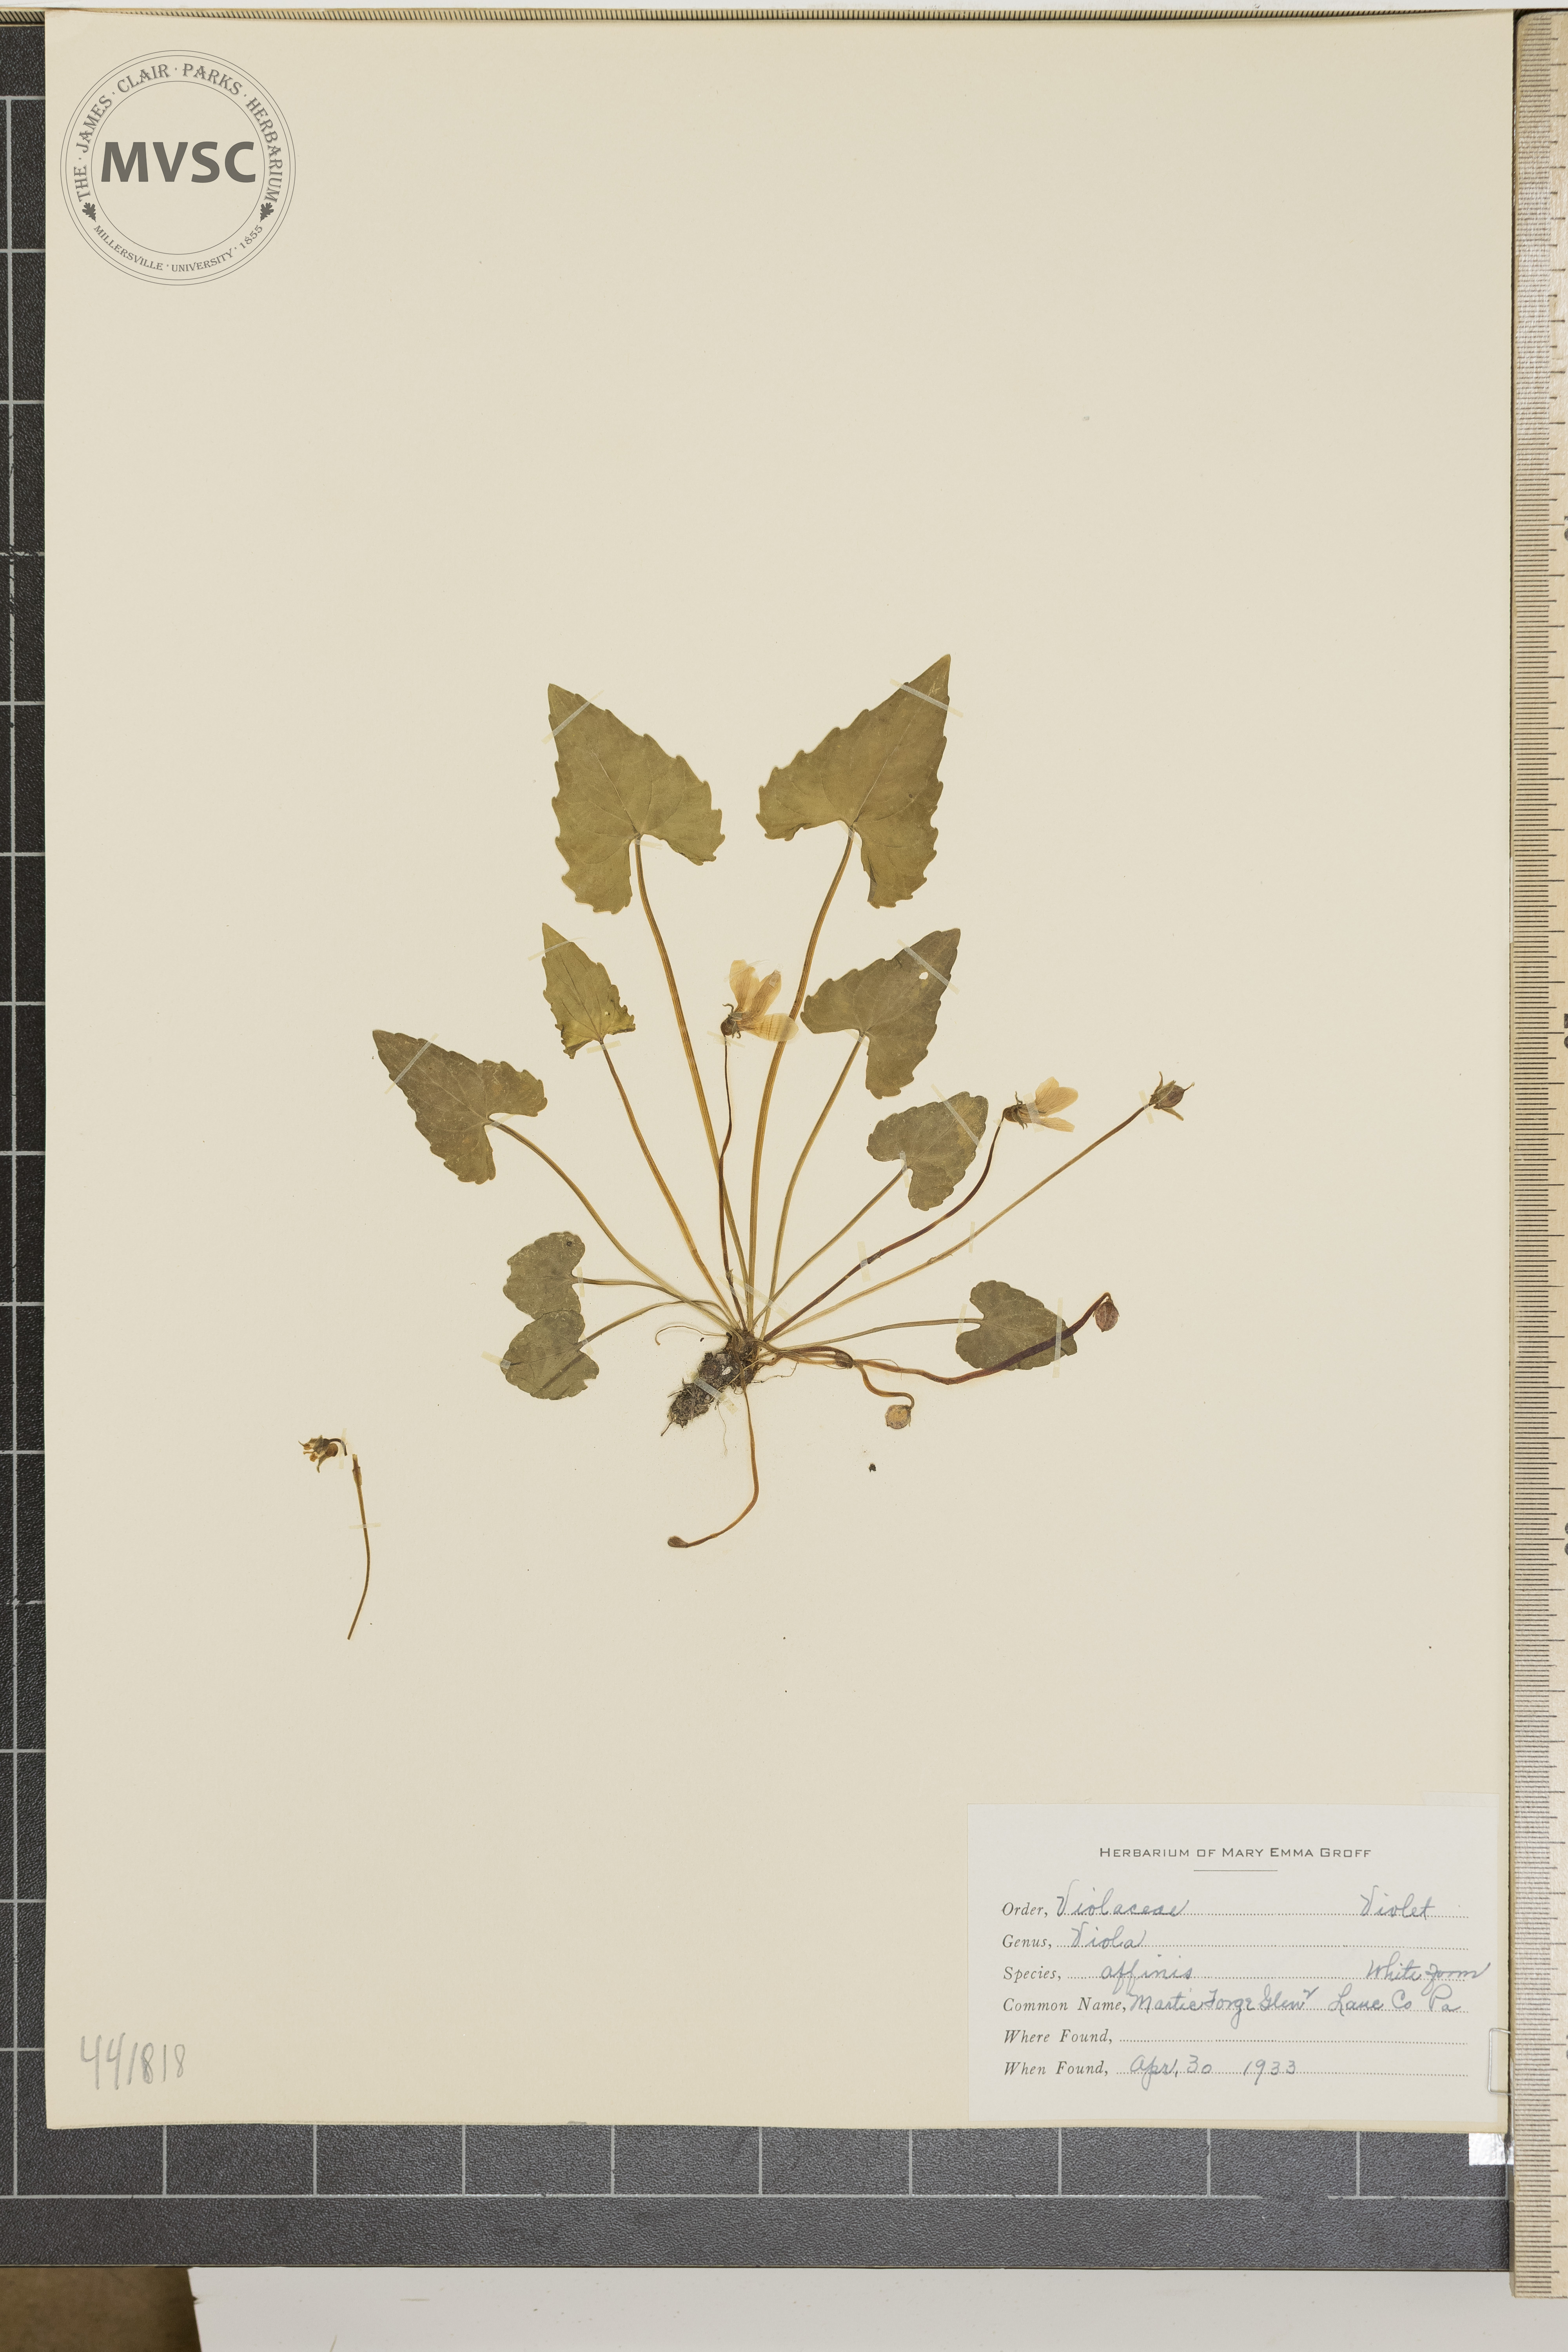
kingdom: Plantae
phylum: Tracheophyta
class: Magnoliopsida
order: Malpighiales
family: Violaceae
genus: Viola
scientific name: Viola affinis
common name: Le Conte's violet
